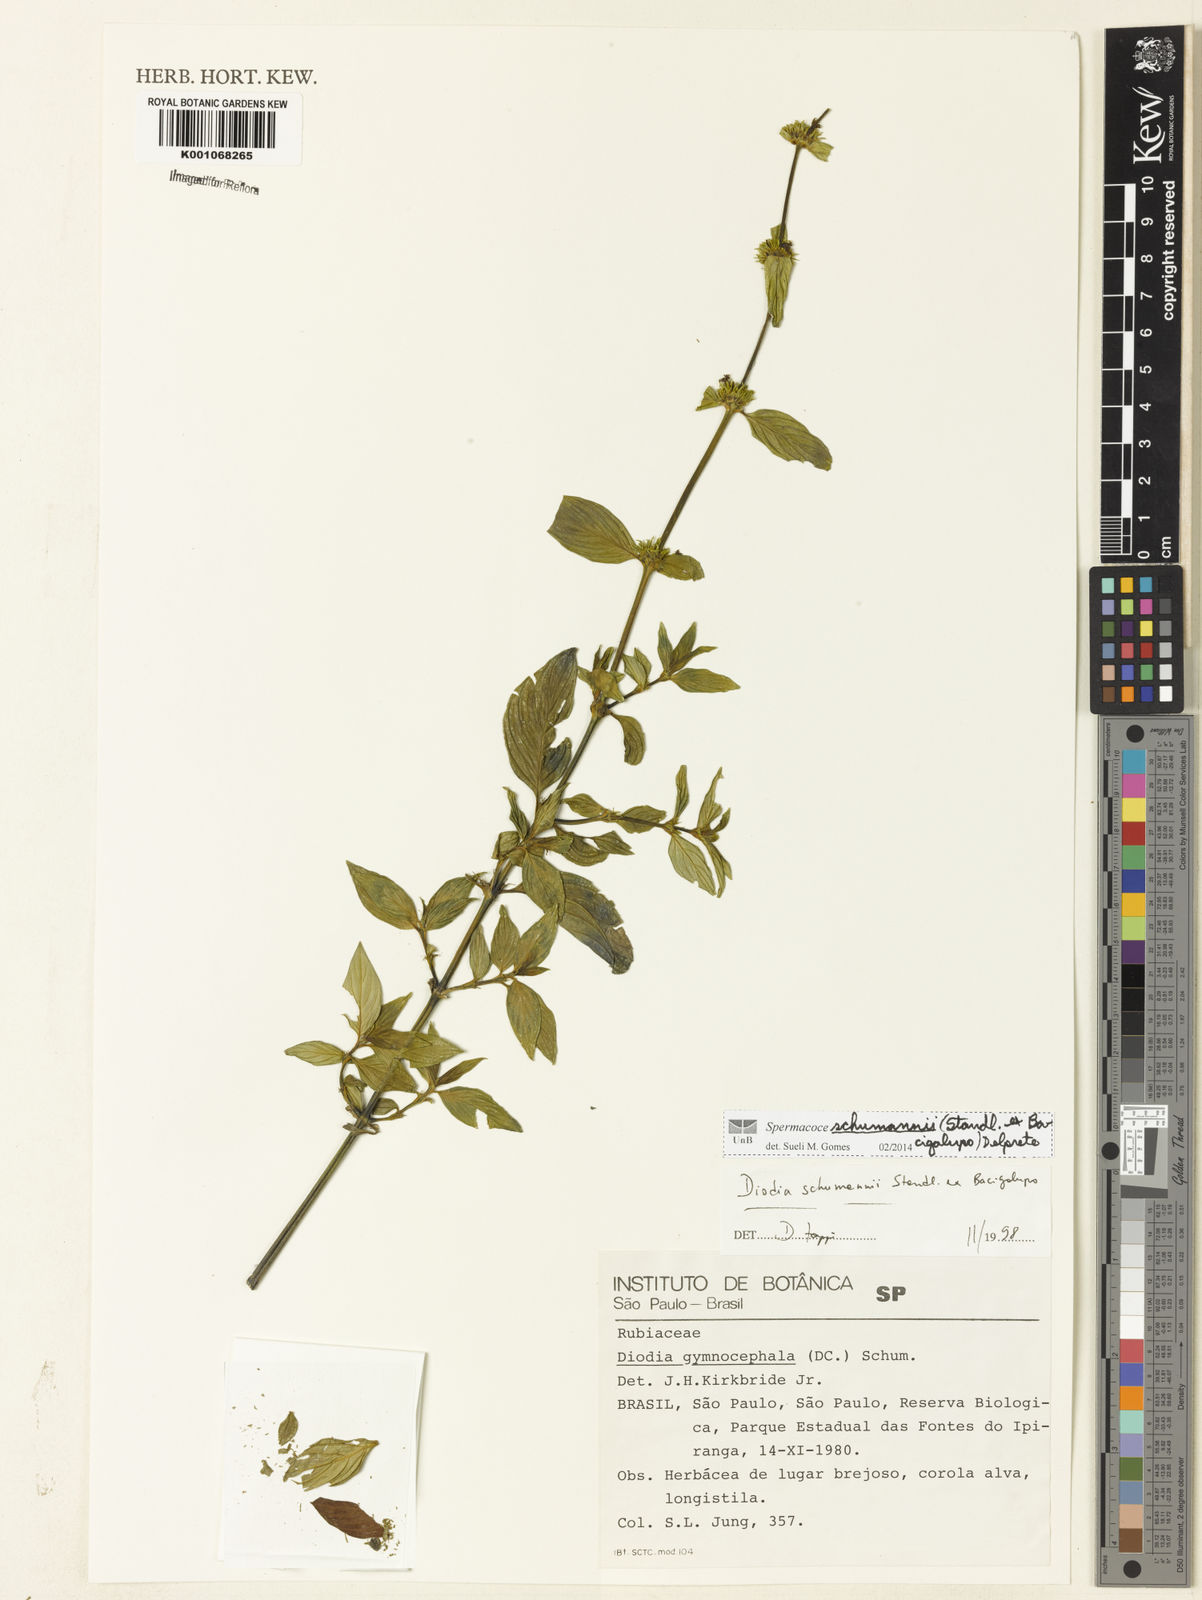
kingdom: Plantae
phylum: Tracheophyta
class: Magnoliopsida
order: Gentianales
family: Rubiaceae
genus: Spermacoce
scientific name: Spermacoce schumannii
